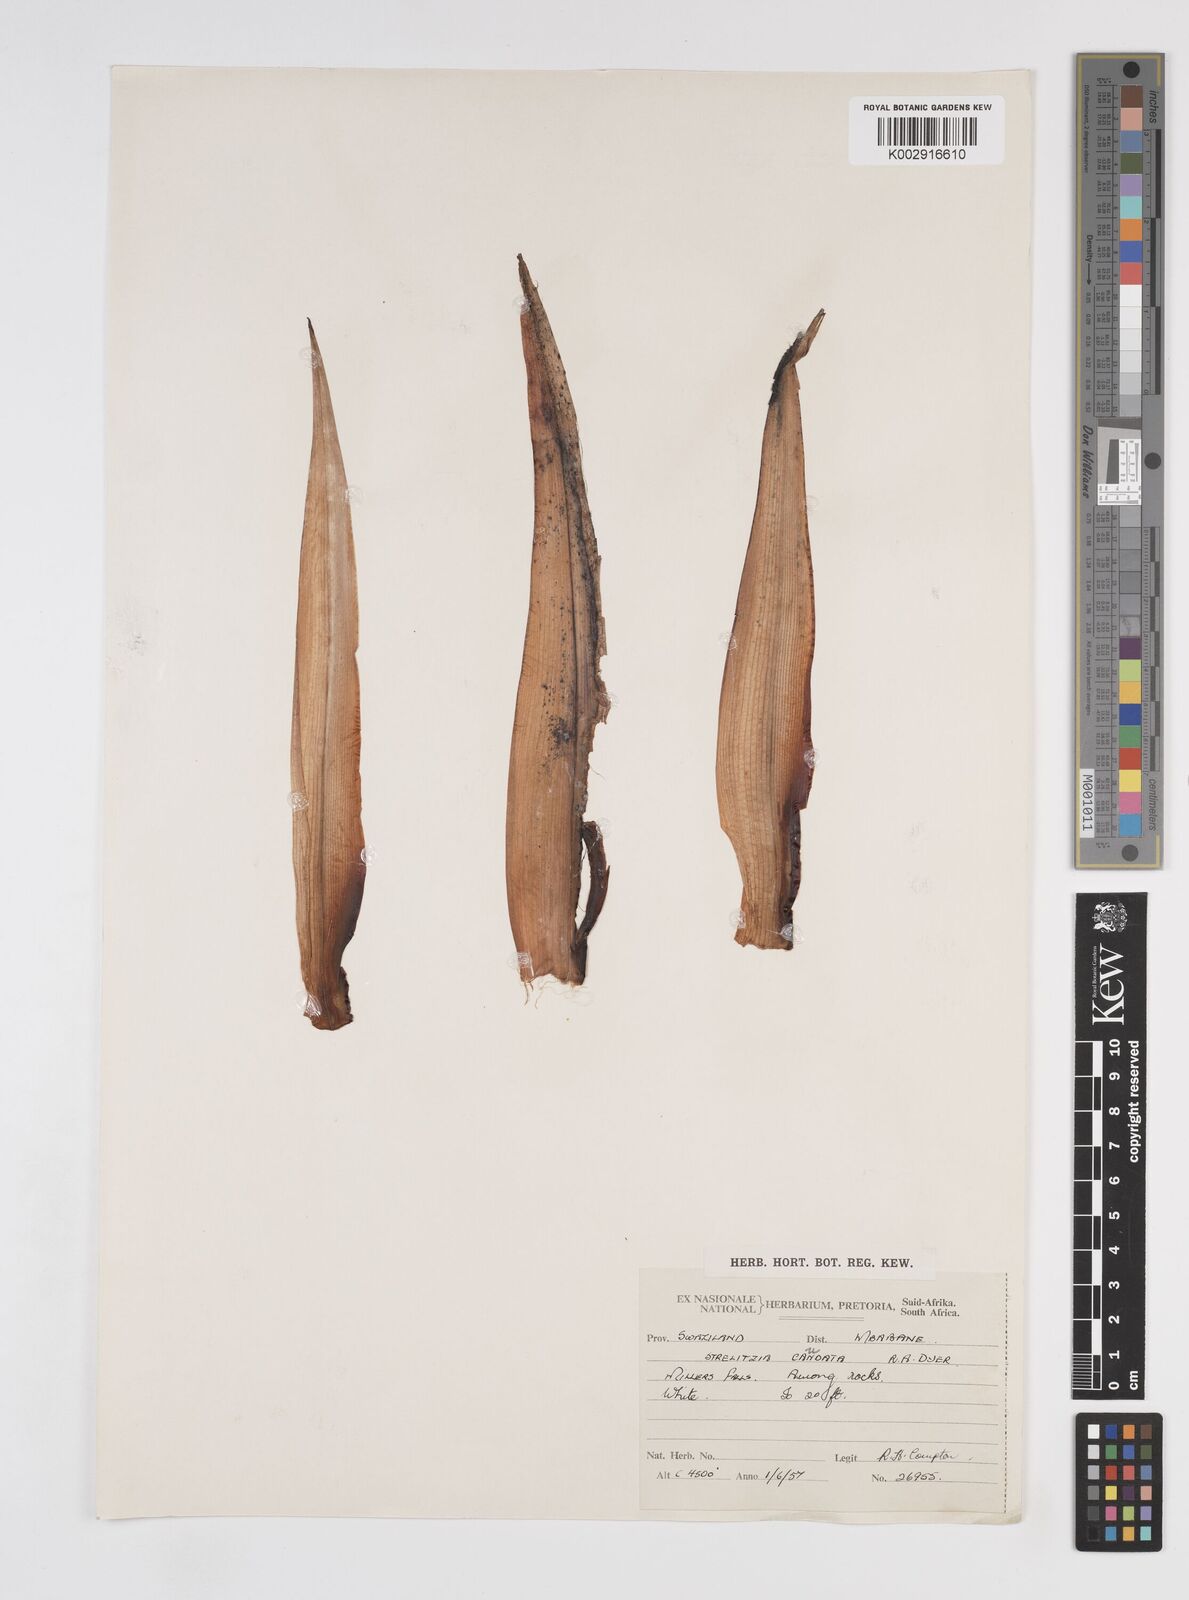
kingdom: Plantae
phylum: Tracheophyta
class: Liliopsida
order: Zingiberales
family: Strelitziaceae
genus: Strelitzia
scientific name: Strelitzia caudata
